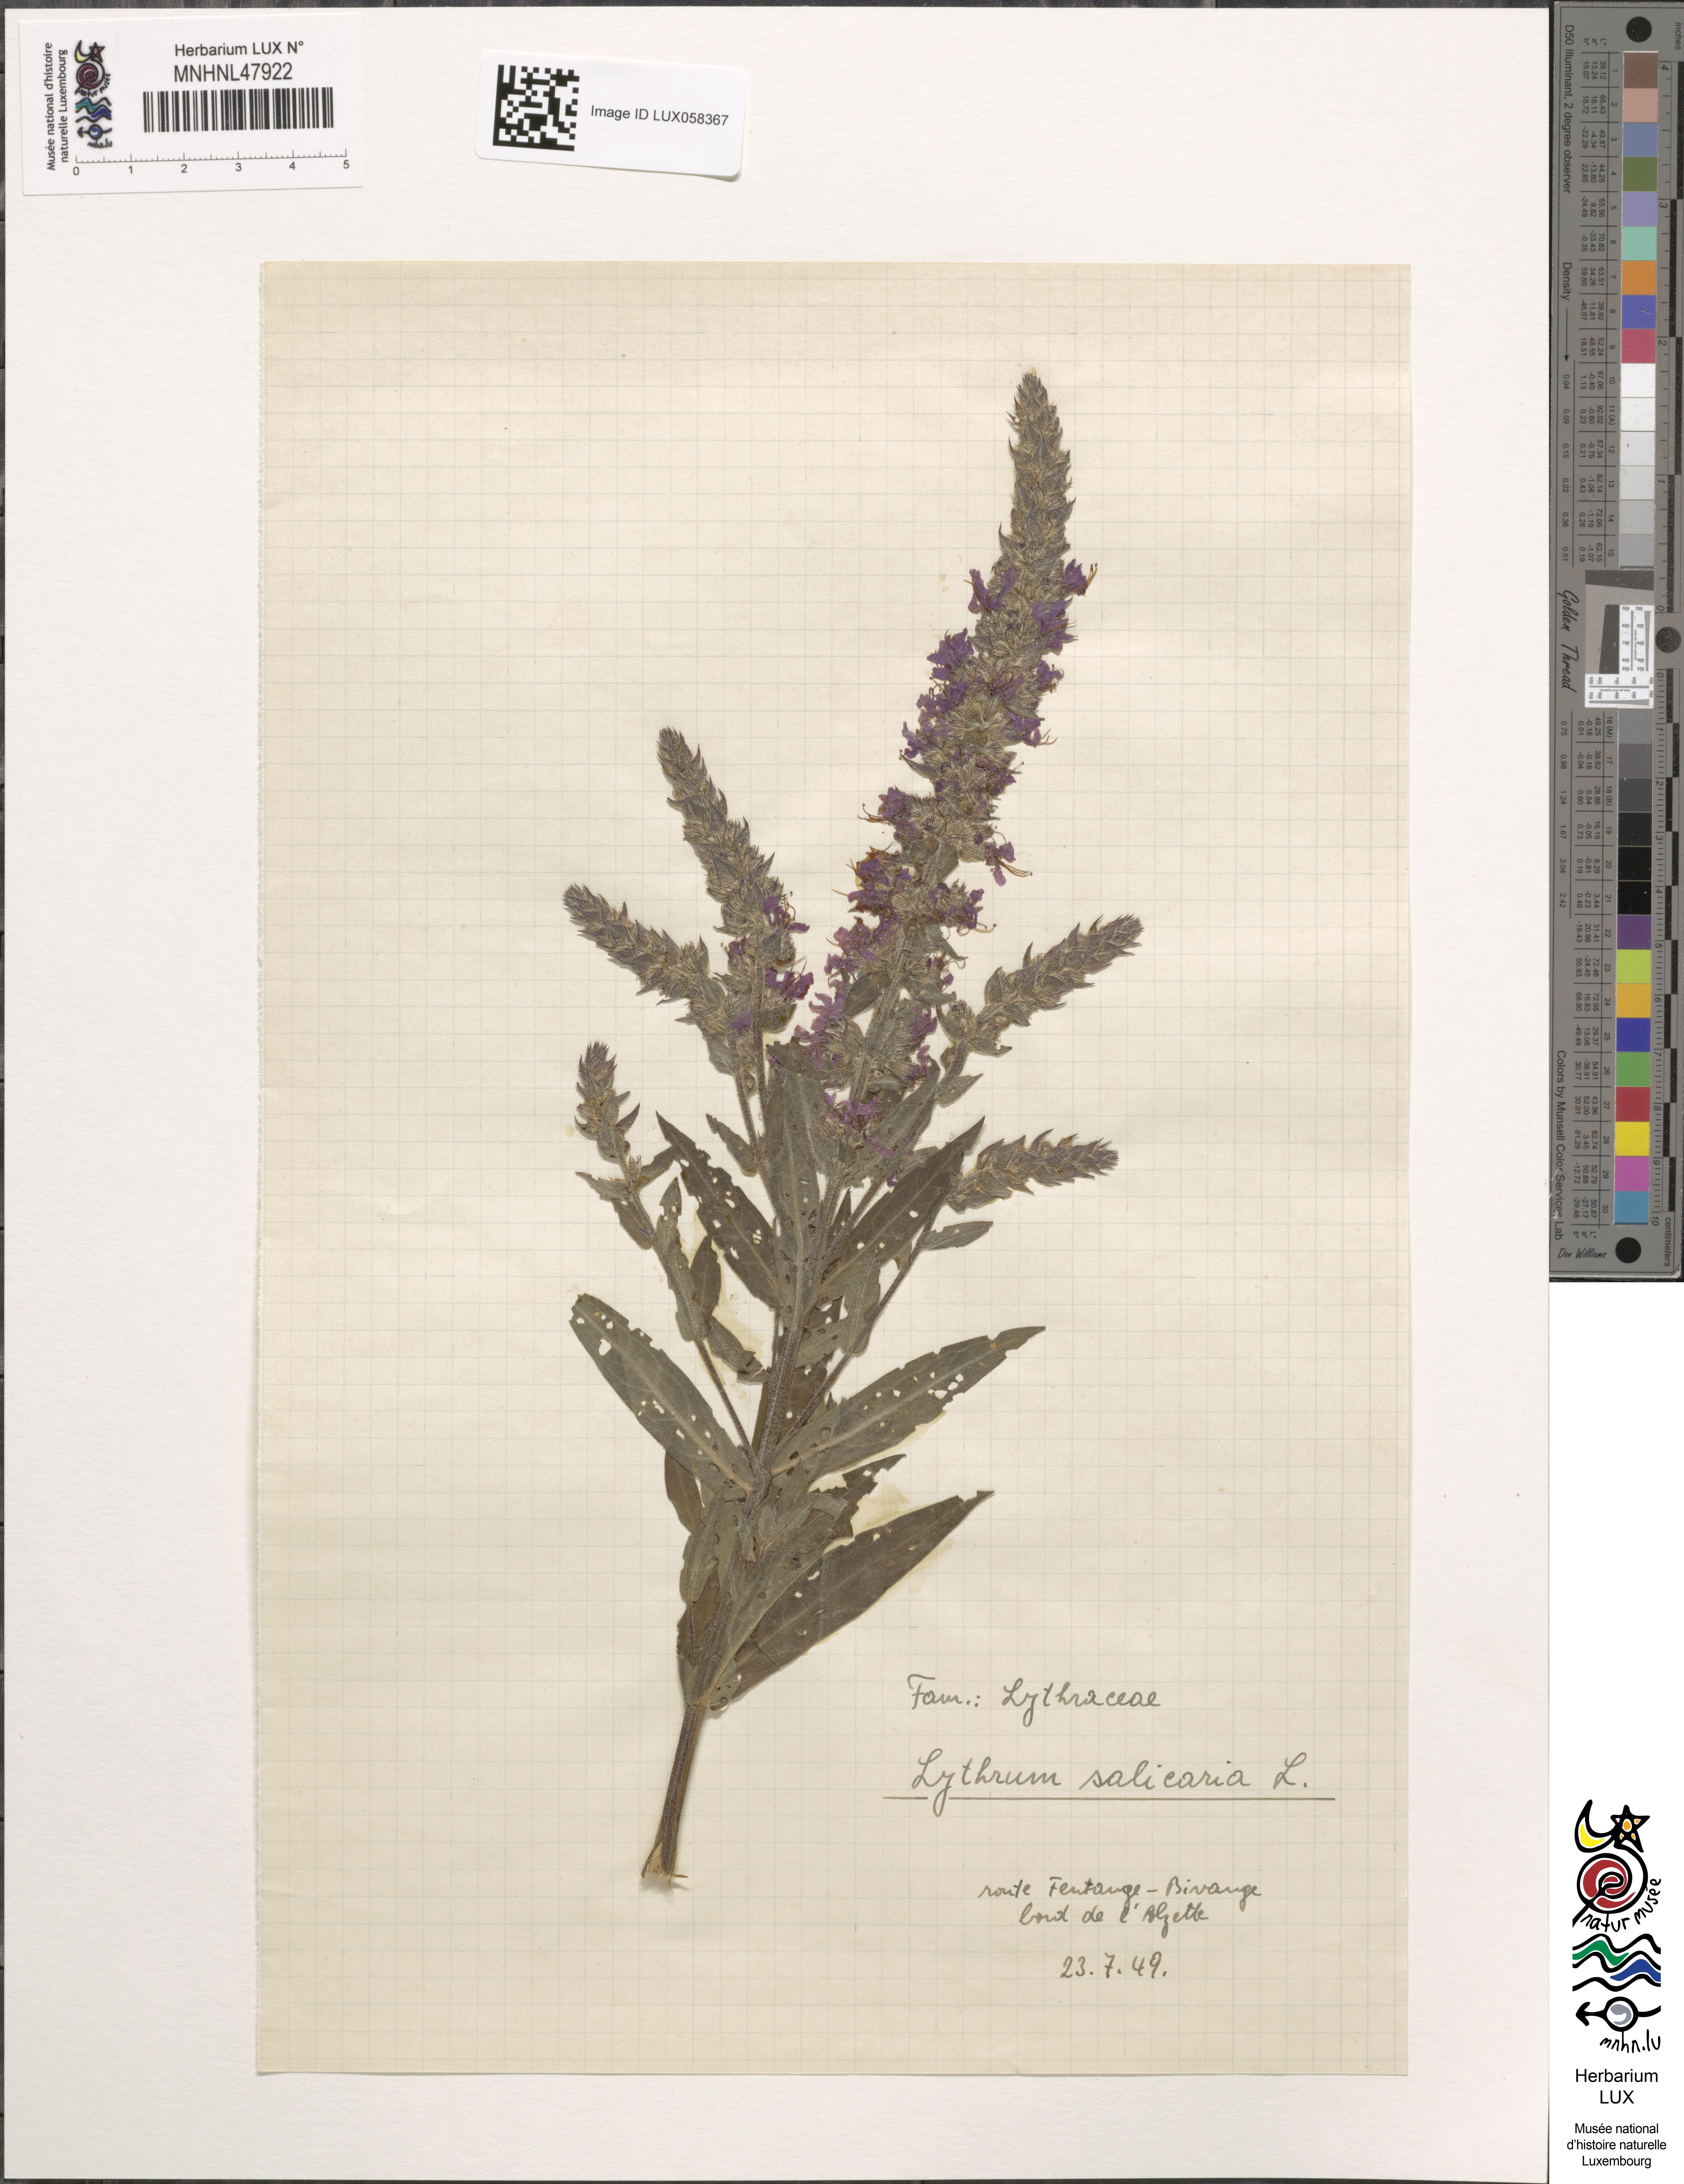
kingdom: Plantae
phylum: Tracheophyta
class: Magnoliopsida
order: Myrtales
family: Lythraceae
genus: Lythrum
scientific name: Lythrum salicaria
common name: Purple loosestrife
